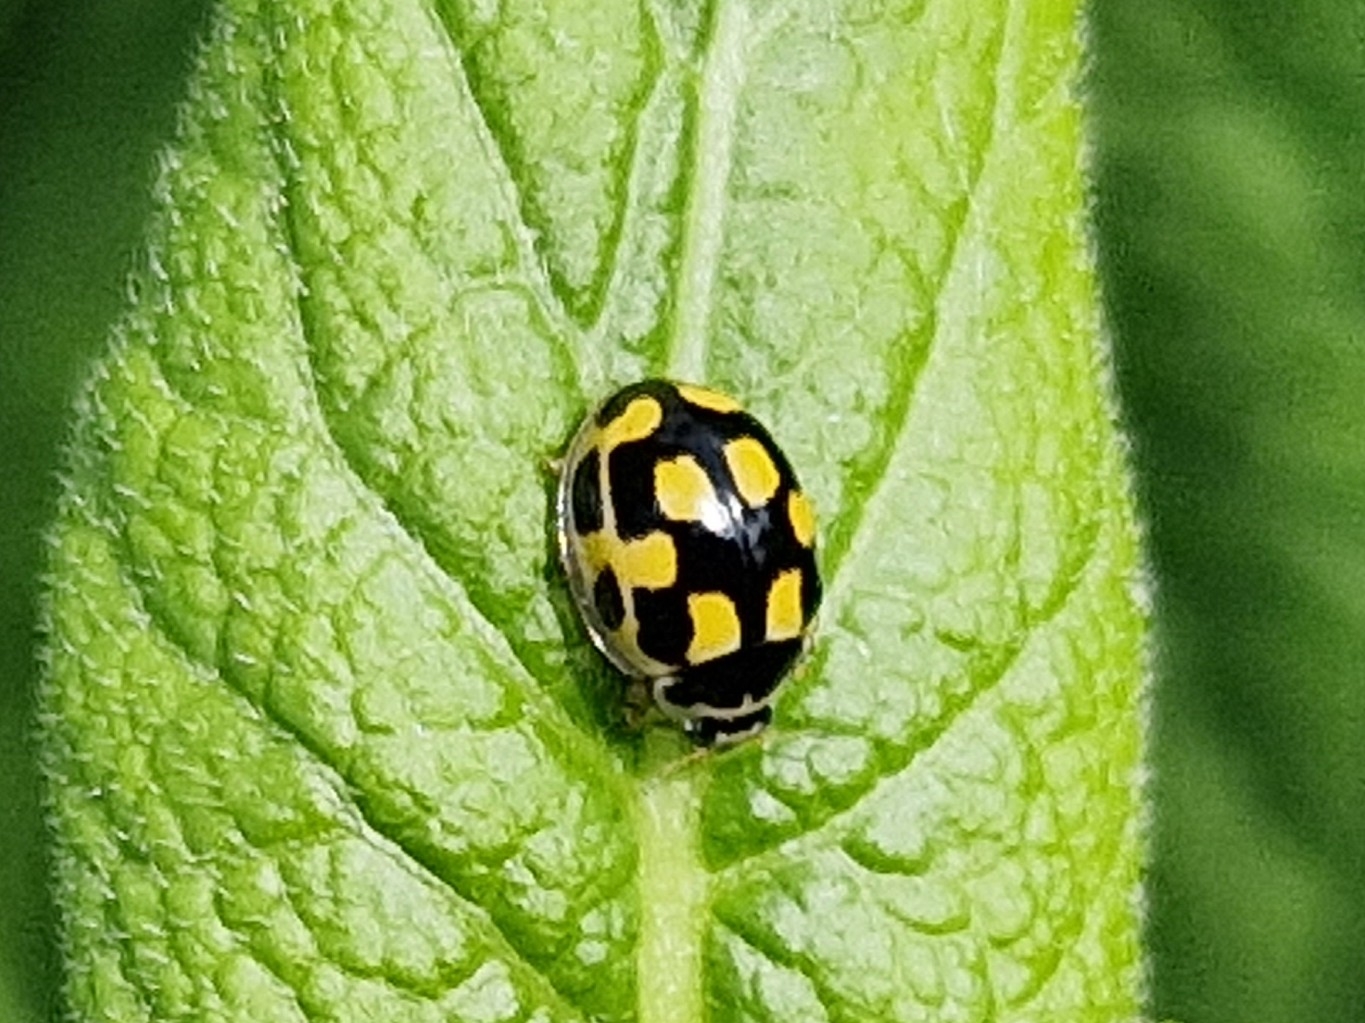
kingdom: Animalia
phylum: Arthropoda
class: Insecta
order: Coleoptera
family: Coccinellidae
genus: Propylaea
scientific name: Propylaea quatuordecimpunctata
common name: Skakbræt
